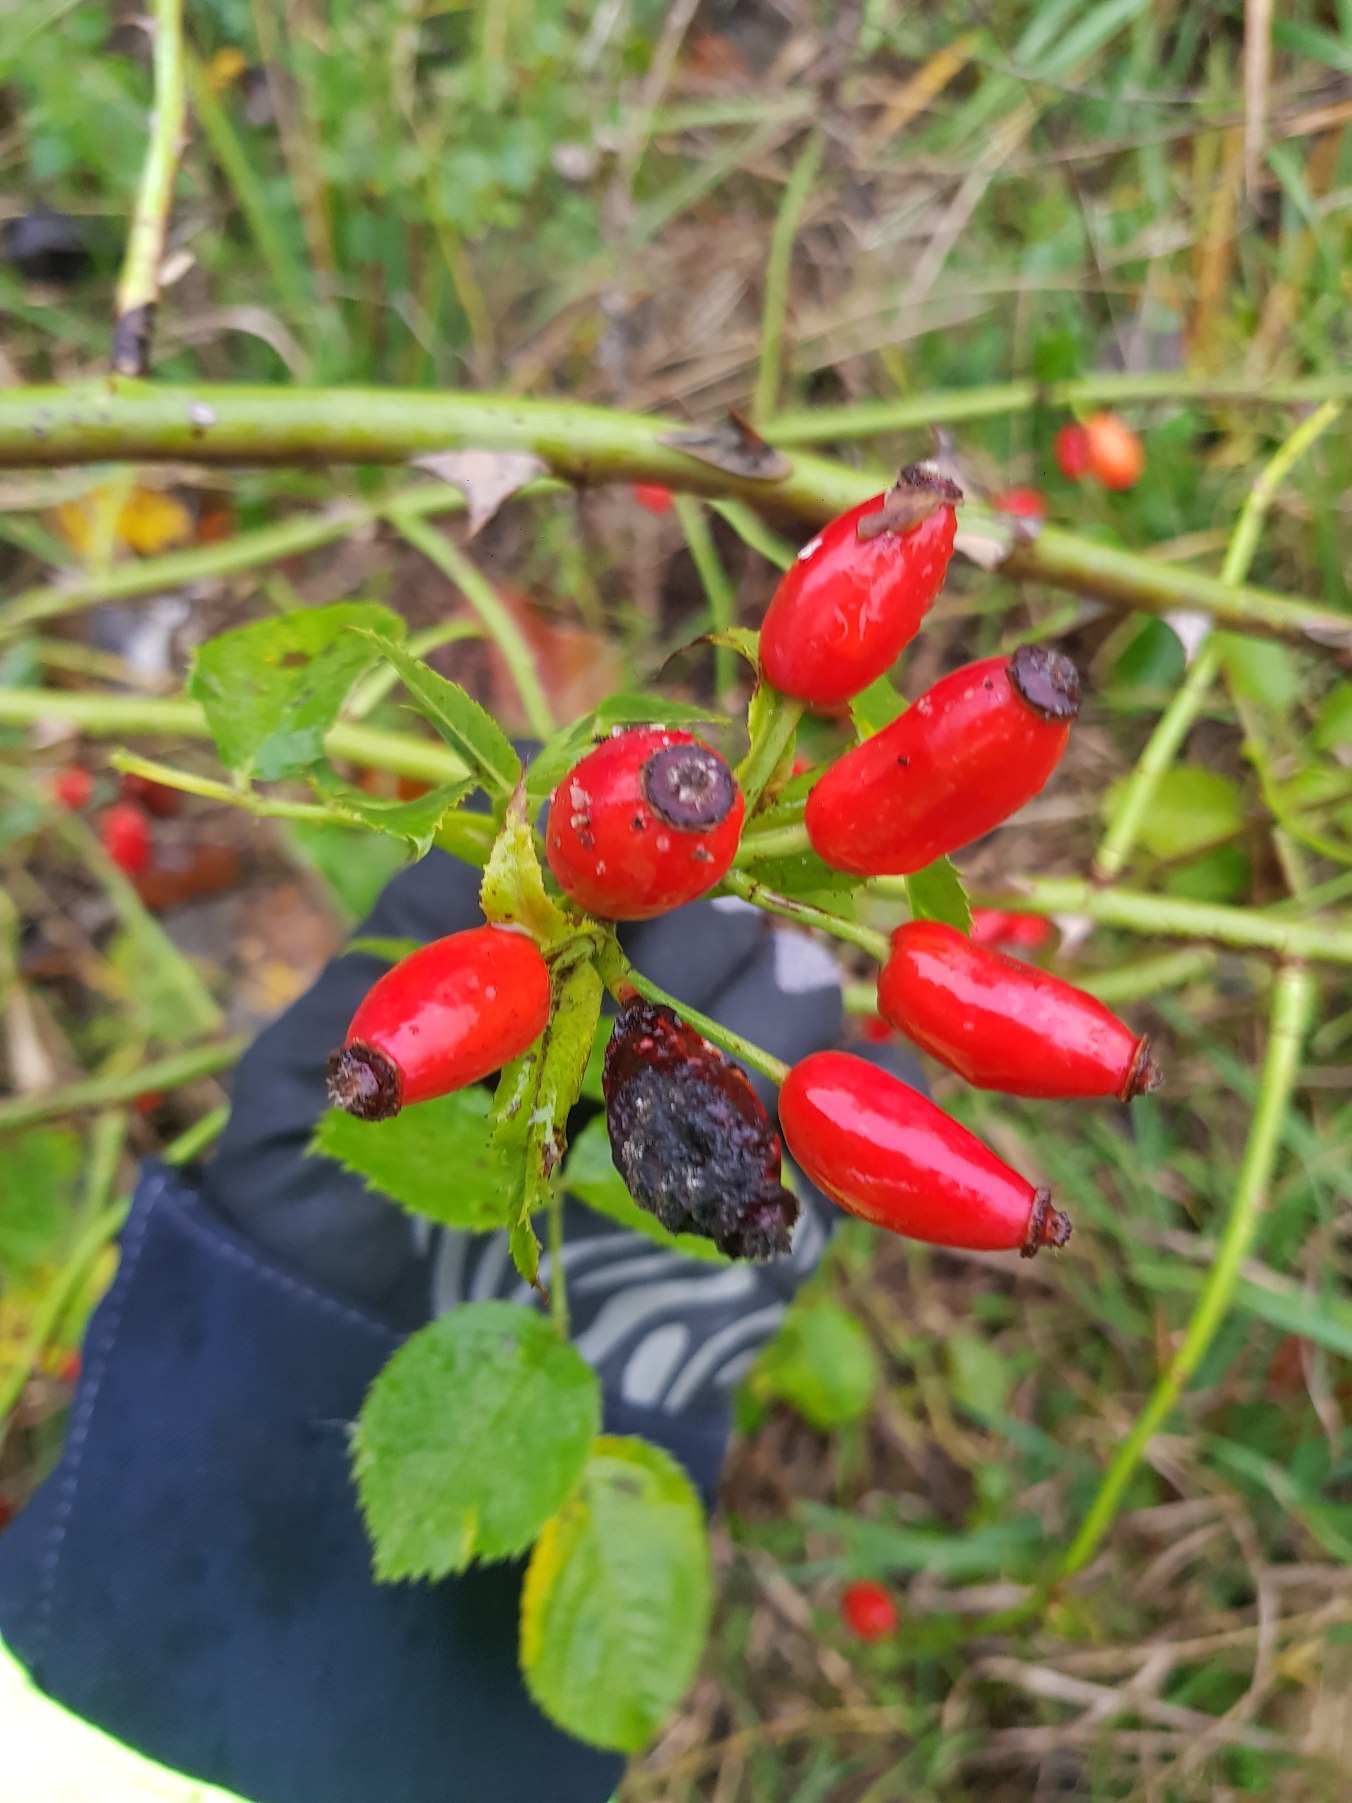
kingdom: Plantae
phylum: Tracheophyta
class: Magnoliopsida
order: Rosales
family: Rosaceae
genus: Rosa
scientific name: Rosa canina
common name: Glat hunde-rose
